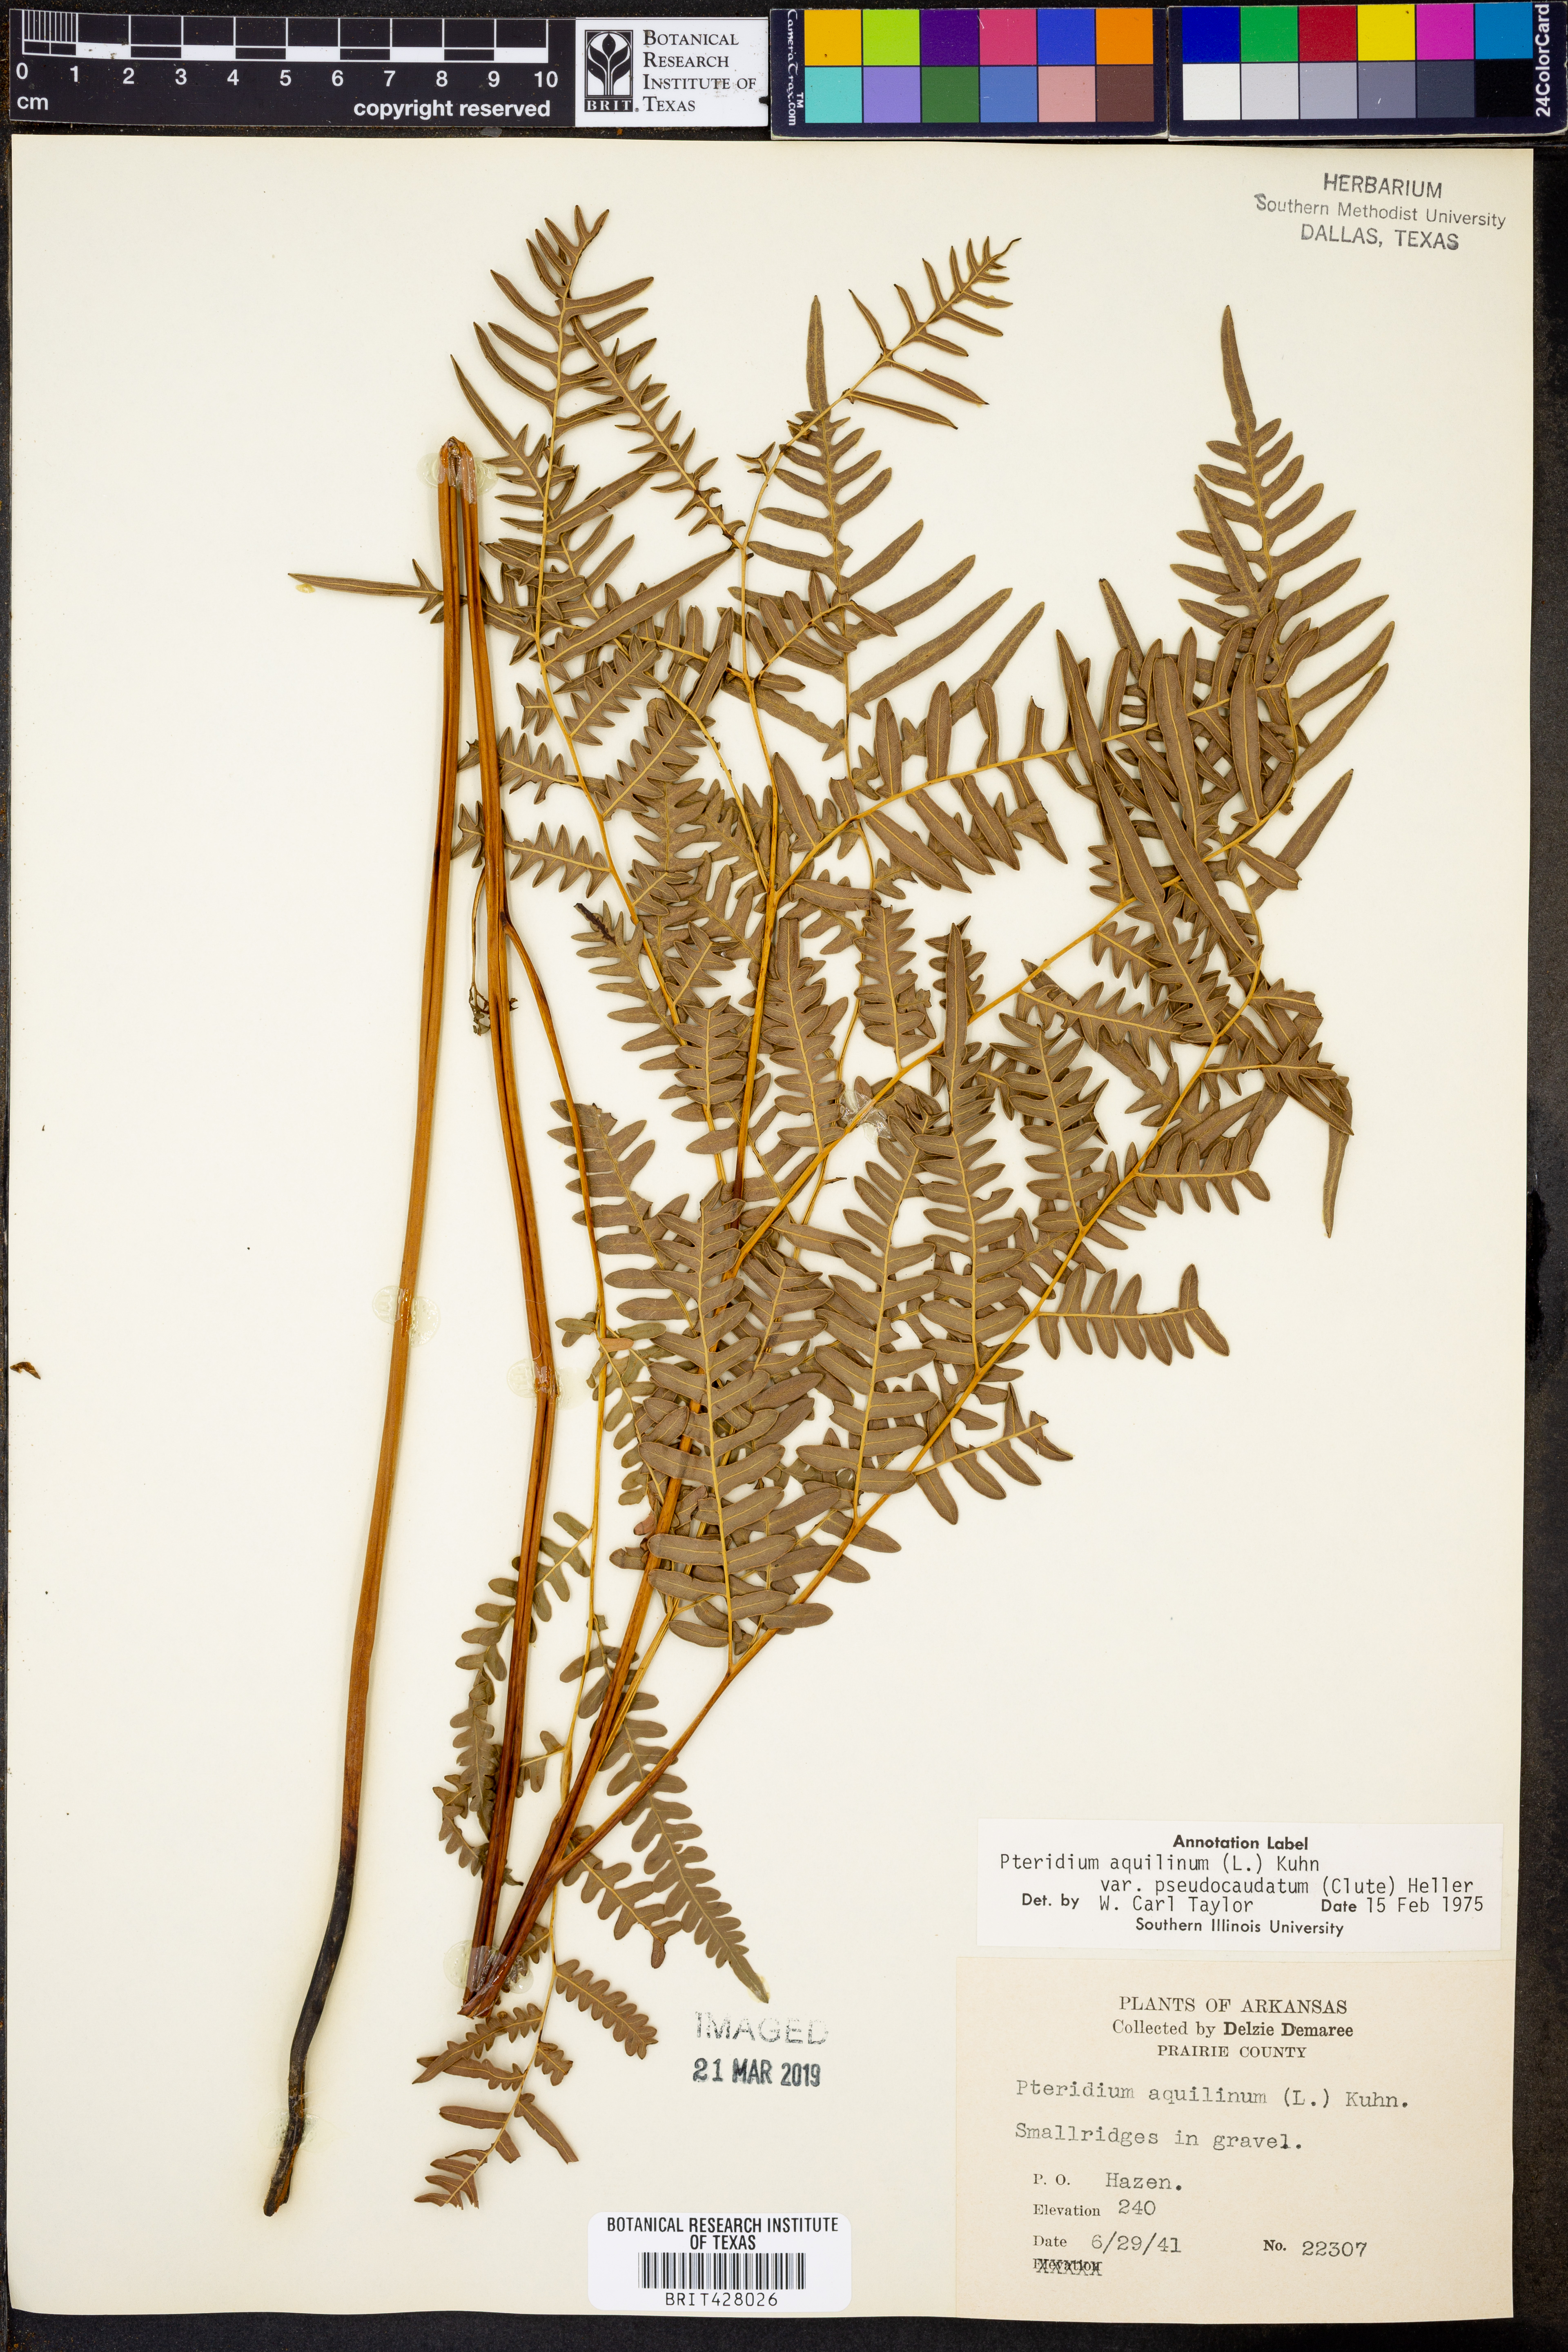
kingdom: Plantae
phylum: Tracheophyta
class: Polypodiopsida
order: Polypodiales
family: Dennstaedtiaceae
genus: Pteridium
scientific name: Pteridium aquilinum
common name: Bracken
